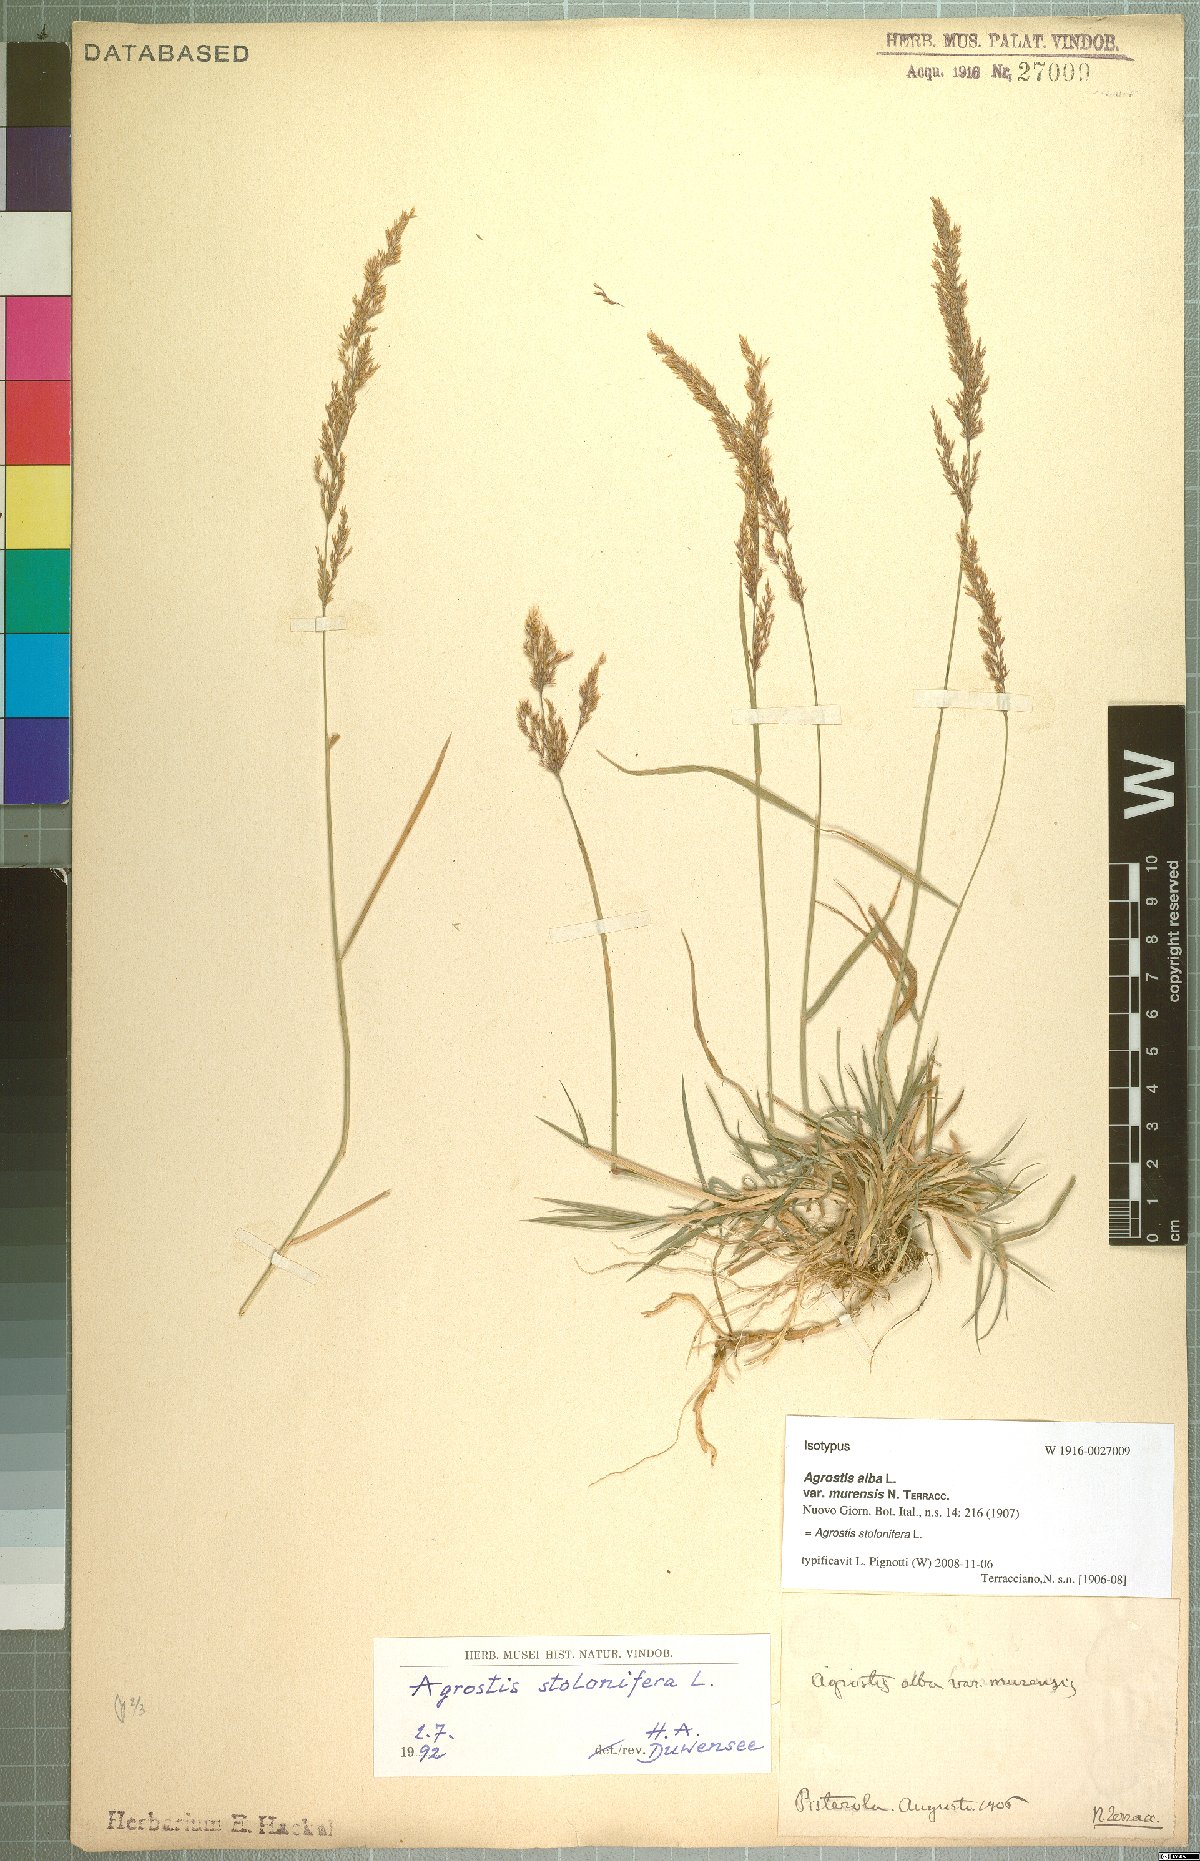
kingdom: Plantae
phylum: Tracheophyta
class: Liliopsida
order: Poales
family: Poaceae
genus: Agrostis
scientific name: Agrostis stolonifera
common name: Creeping bentgrass
